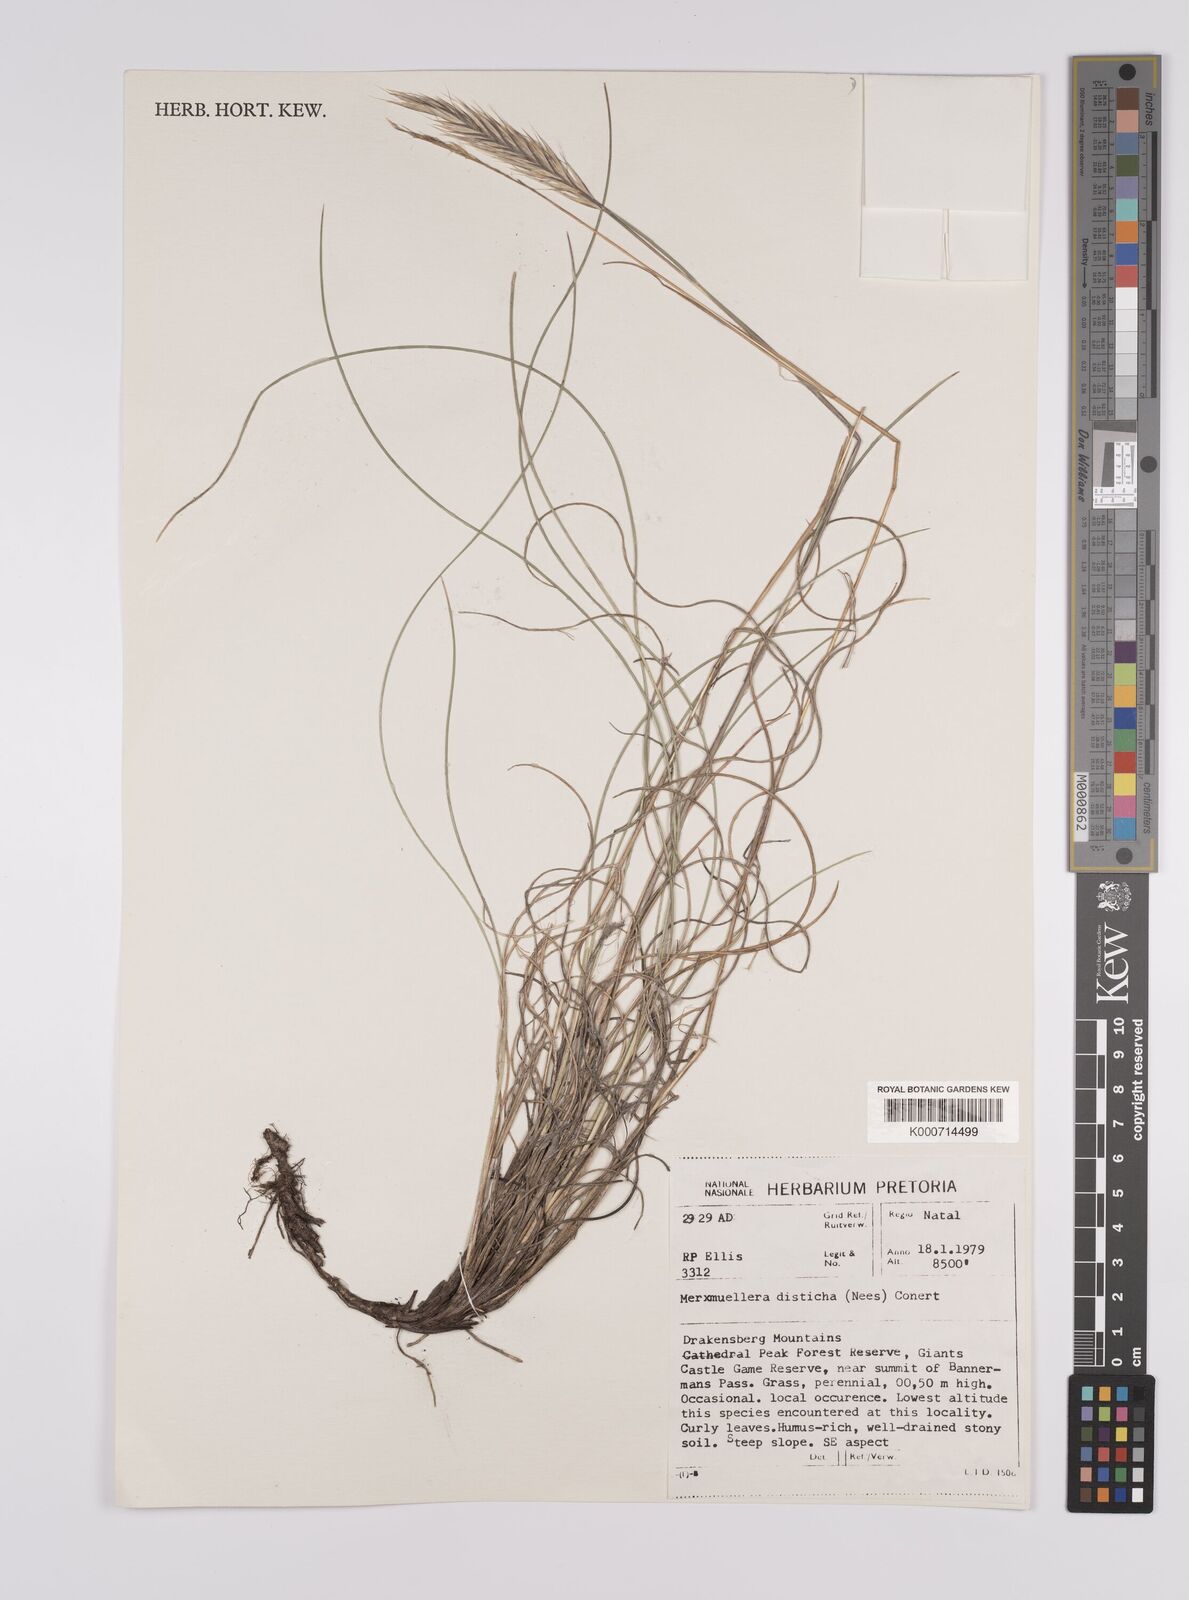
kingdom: Plantae
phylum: Tracheophyta
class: Liliopsida
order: Poales
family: Poaceae
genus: Tenaxia
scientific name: Tenaxia disticha
